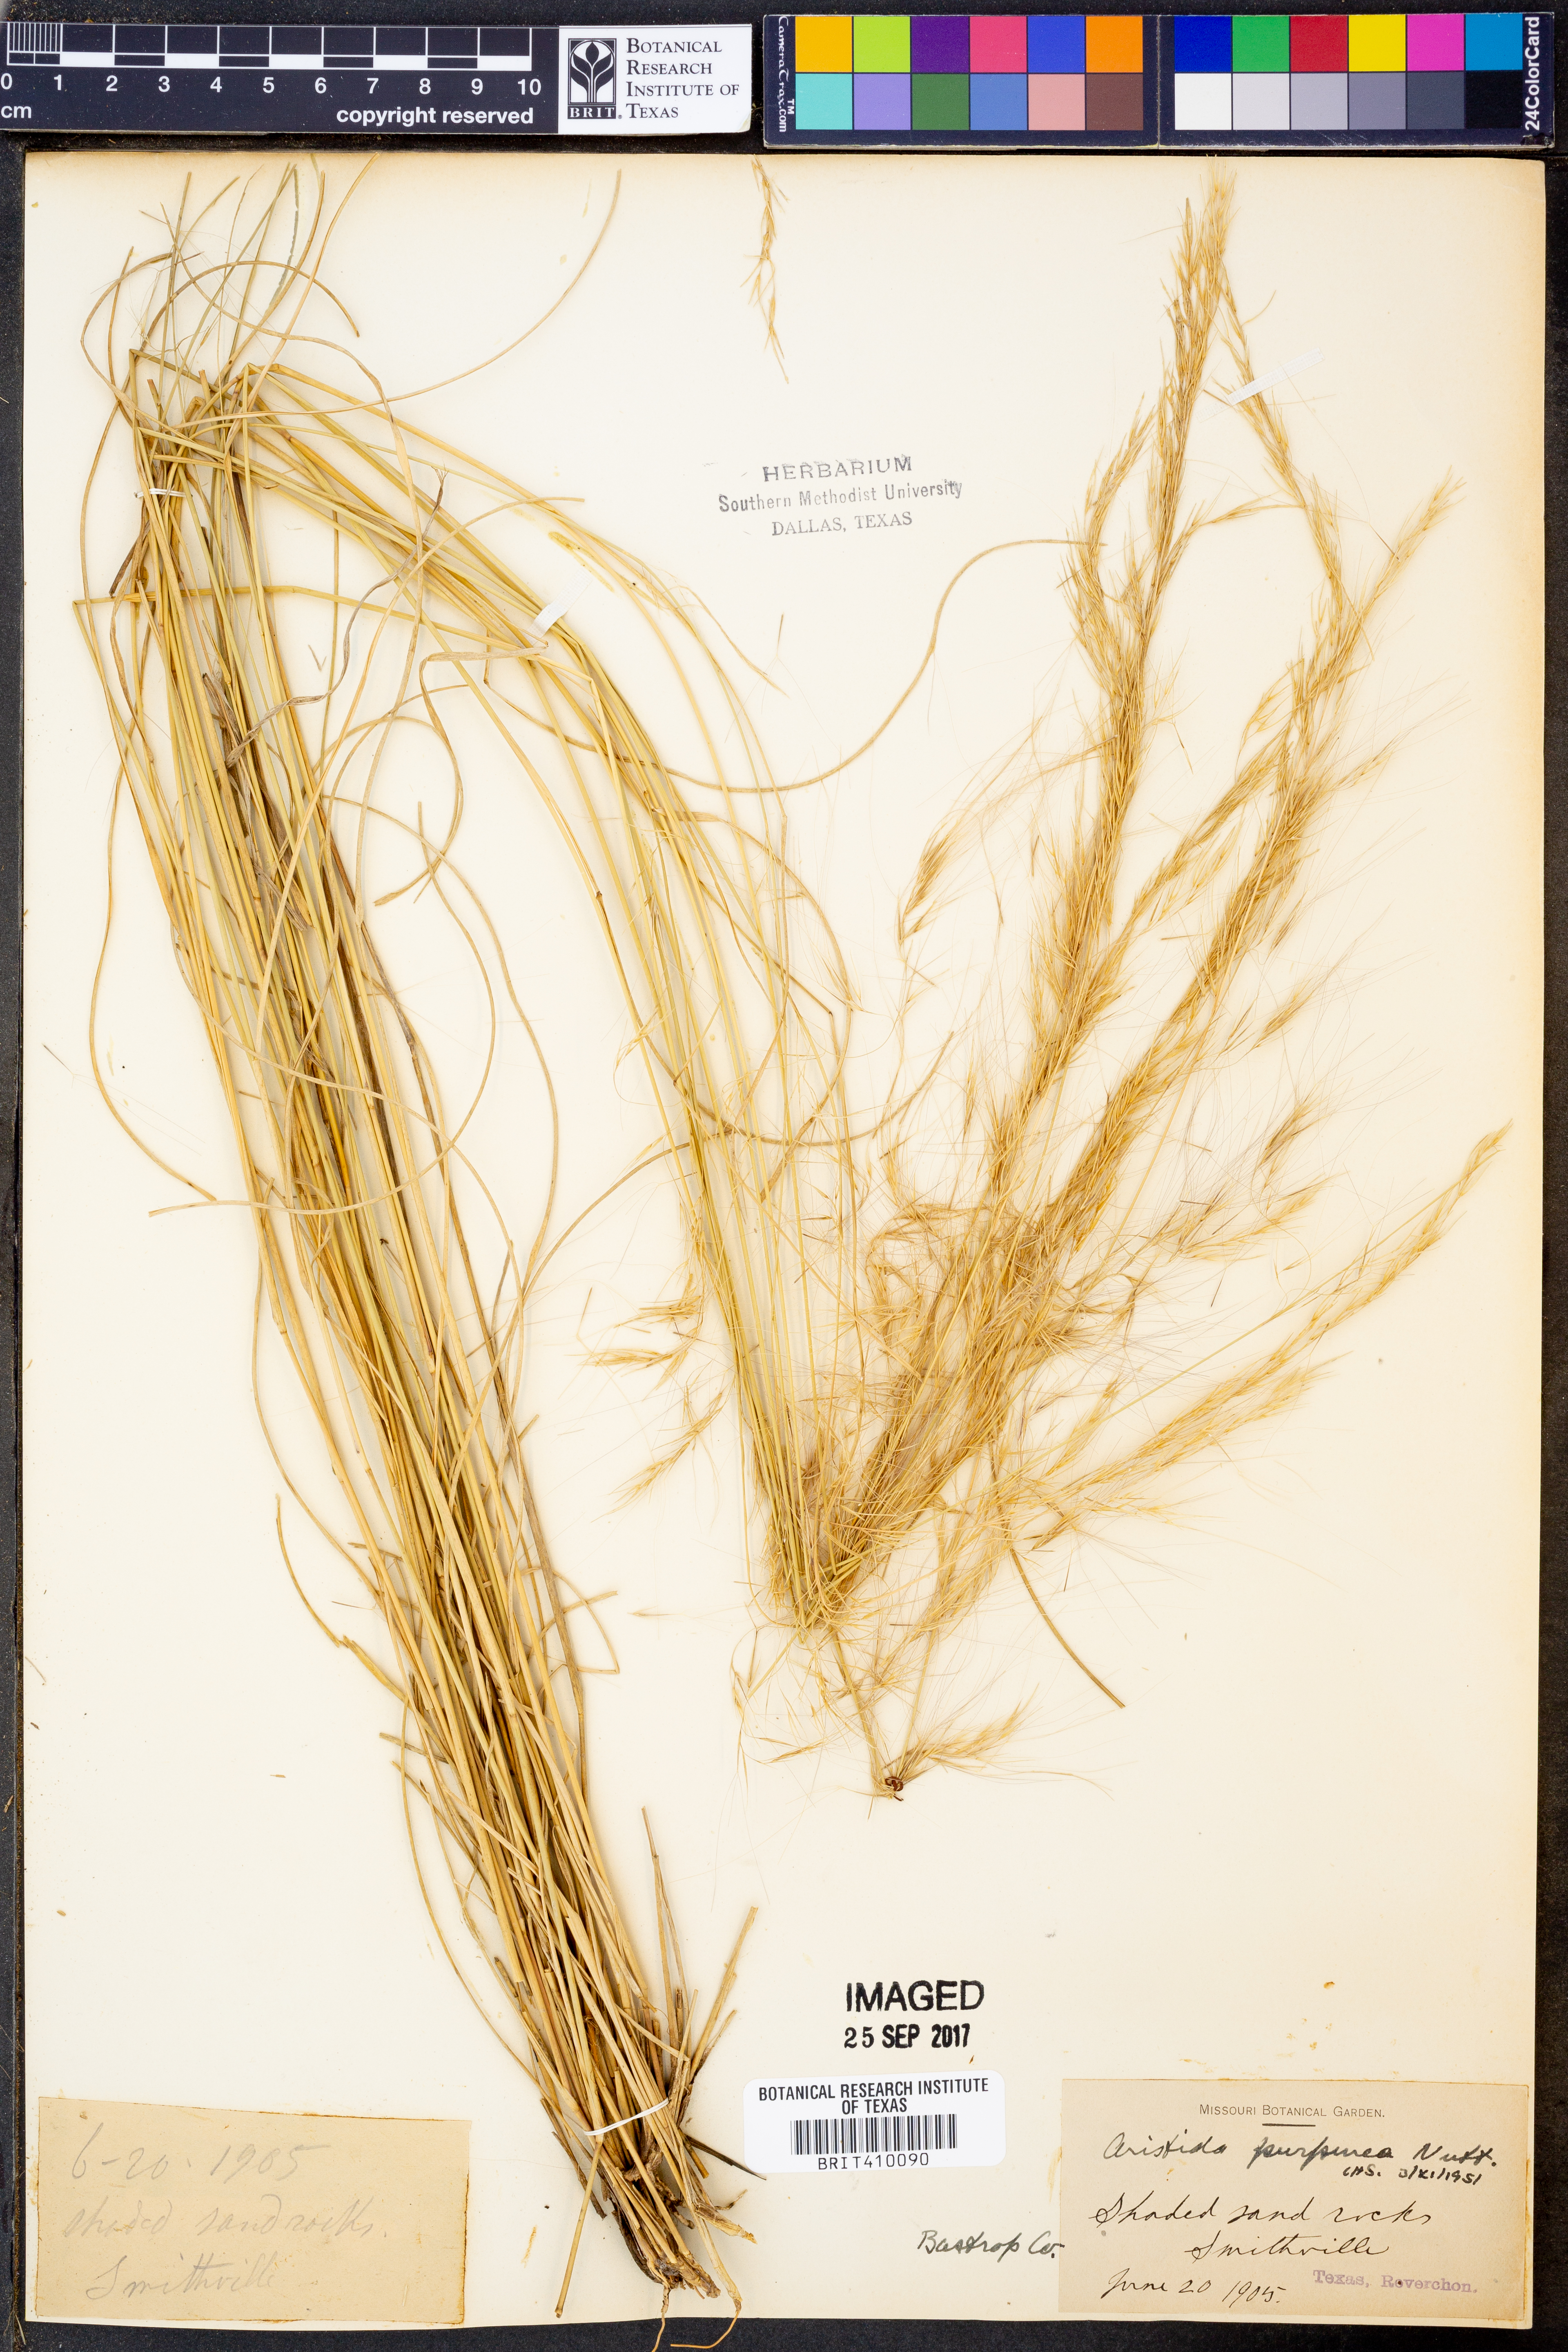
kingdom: Plantae
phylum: Tracheophyta
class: Liliopsida
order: Poales
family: Poaceae
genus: Aristida
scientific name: Aristida purpurea
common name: Purple threeawn
